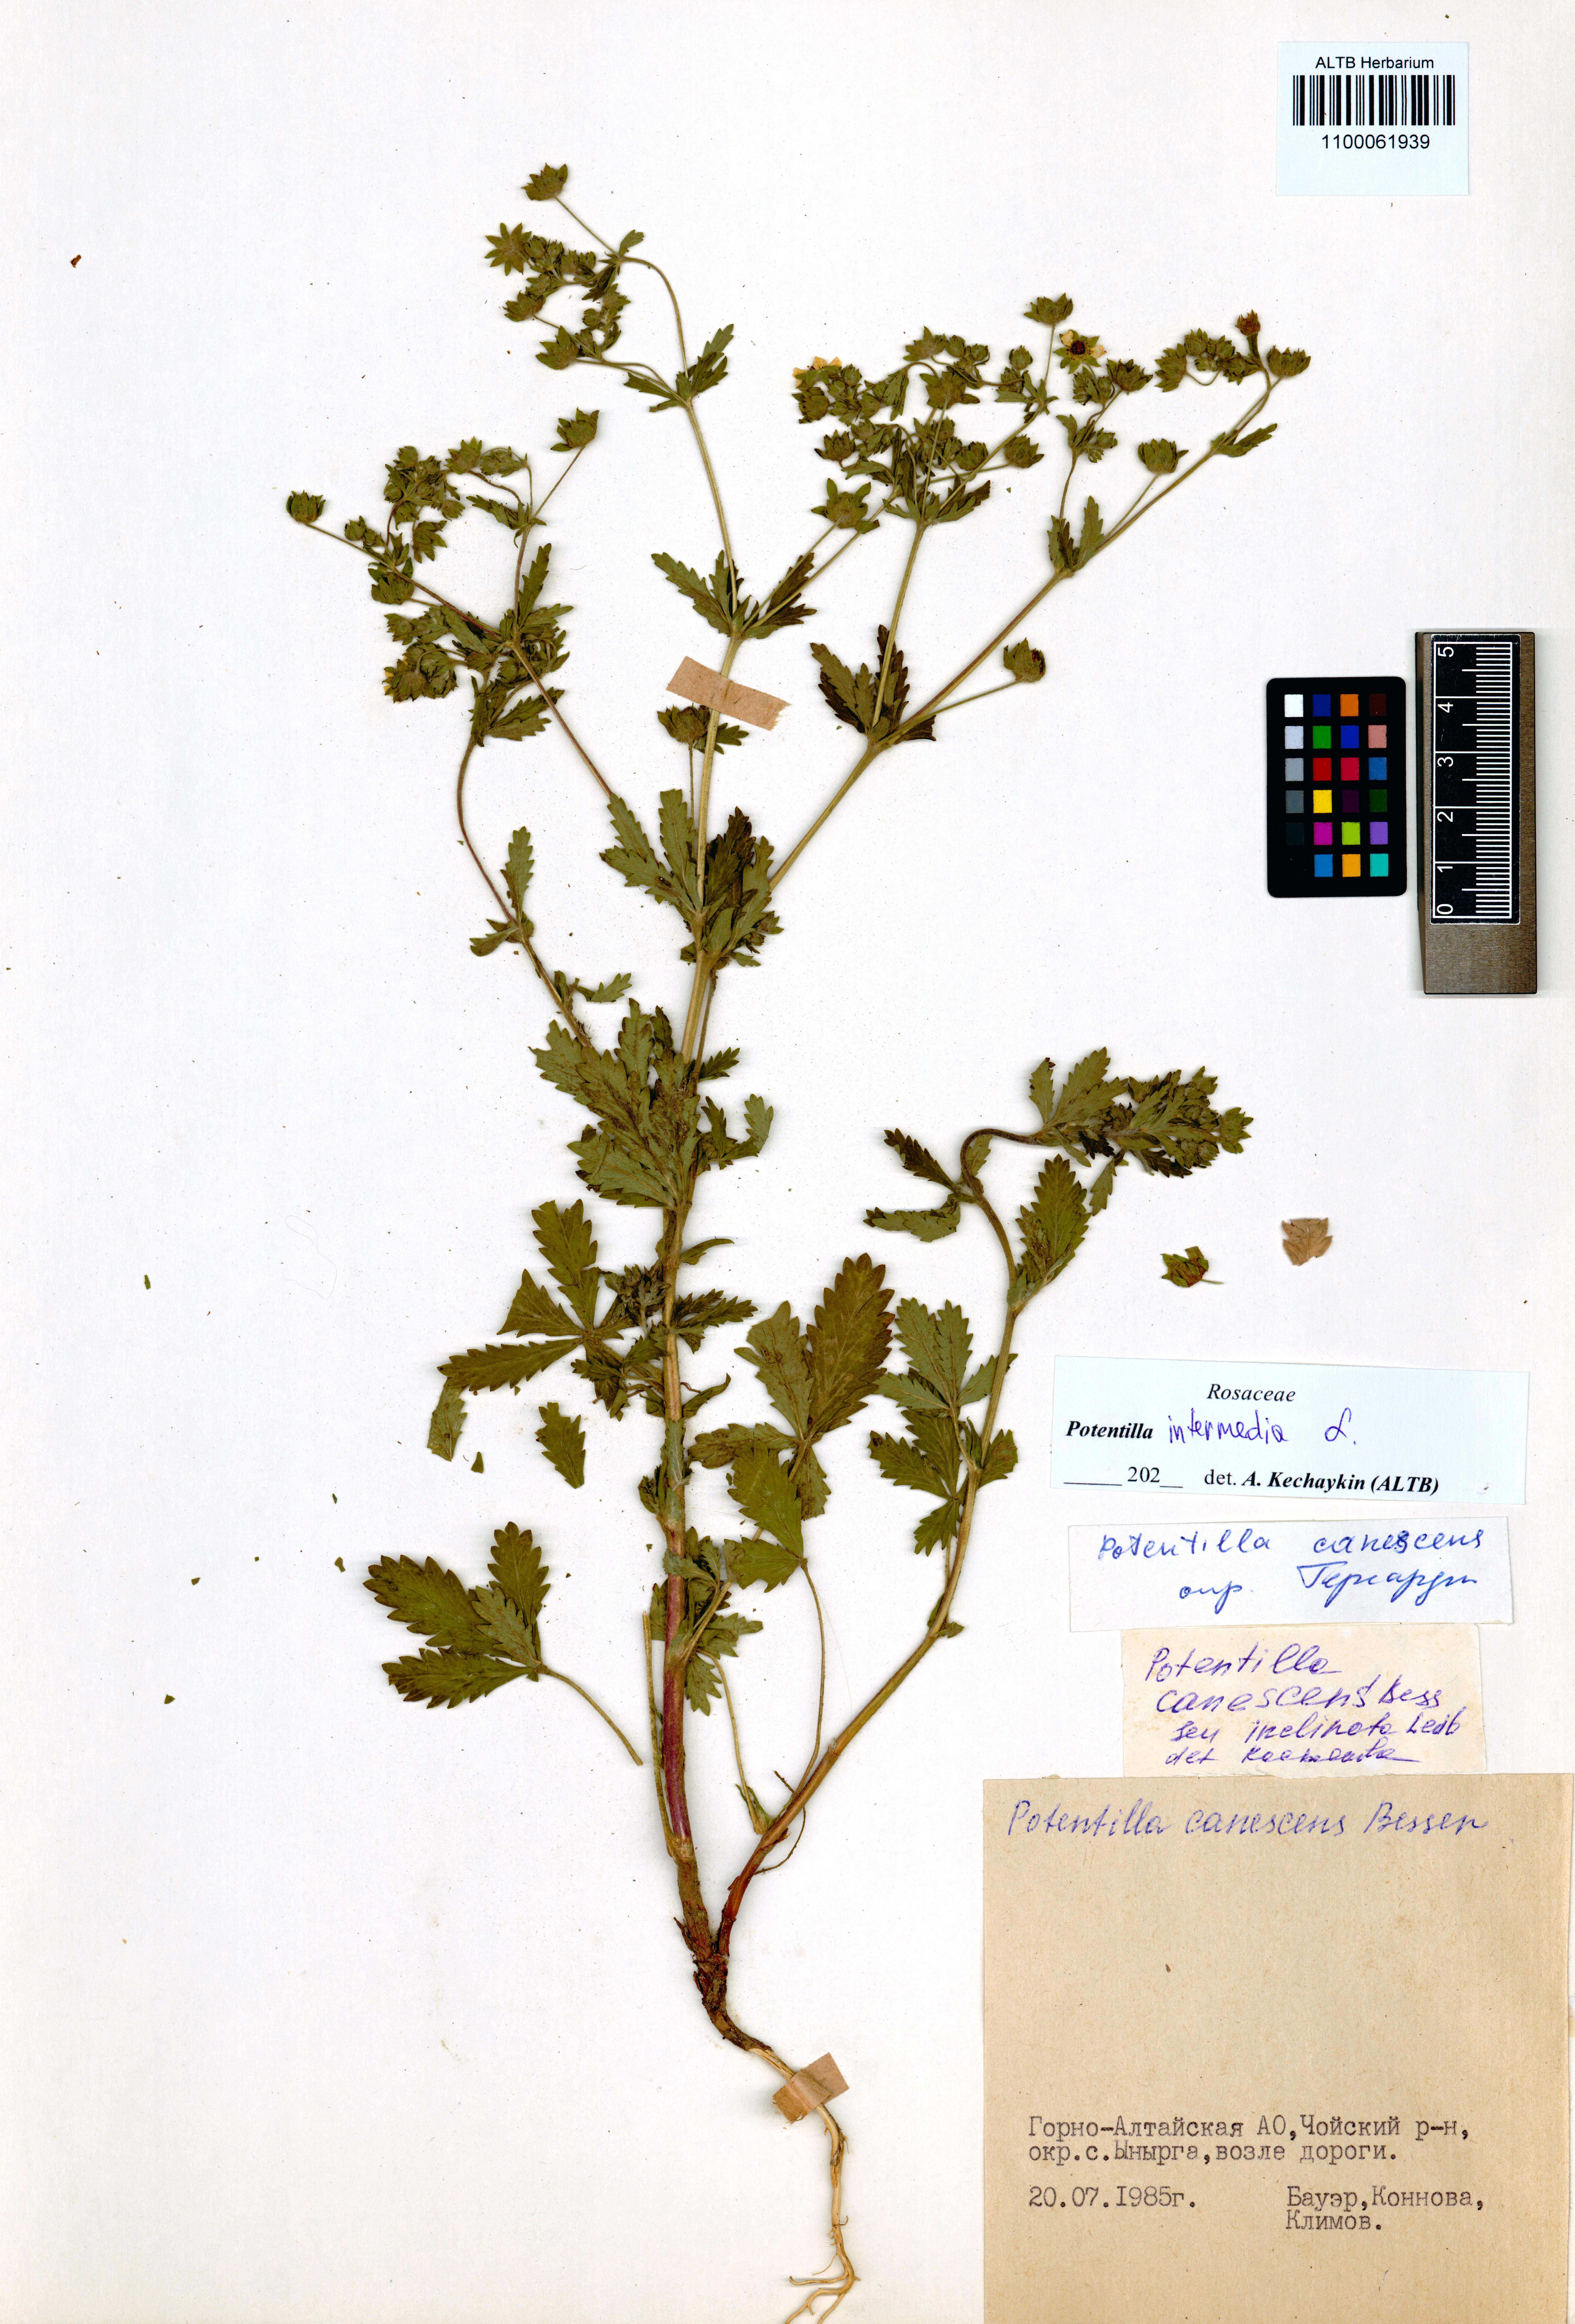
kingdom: Plantae
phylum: Tracheophyta
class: Magnoliopsida
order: Rosales
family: Rosaceae
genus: Potentilla
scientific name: Potentilla intermedia
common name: Downy cinquefoil
